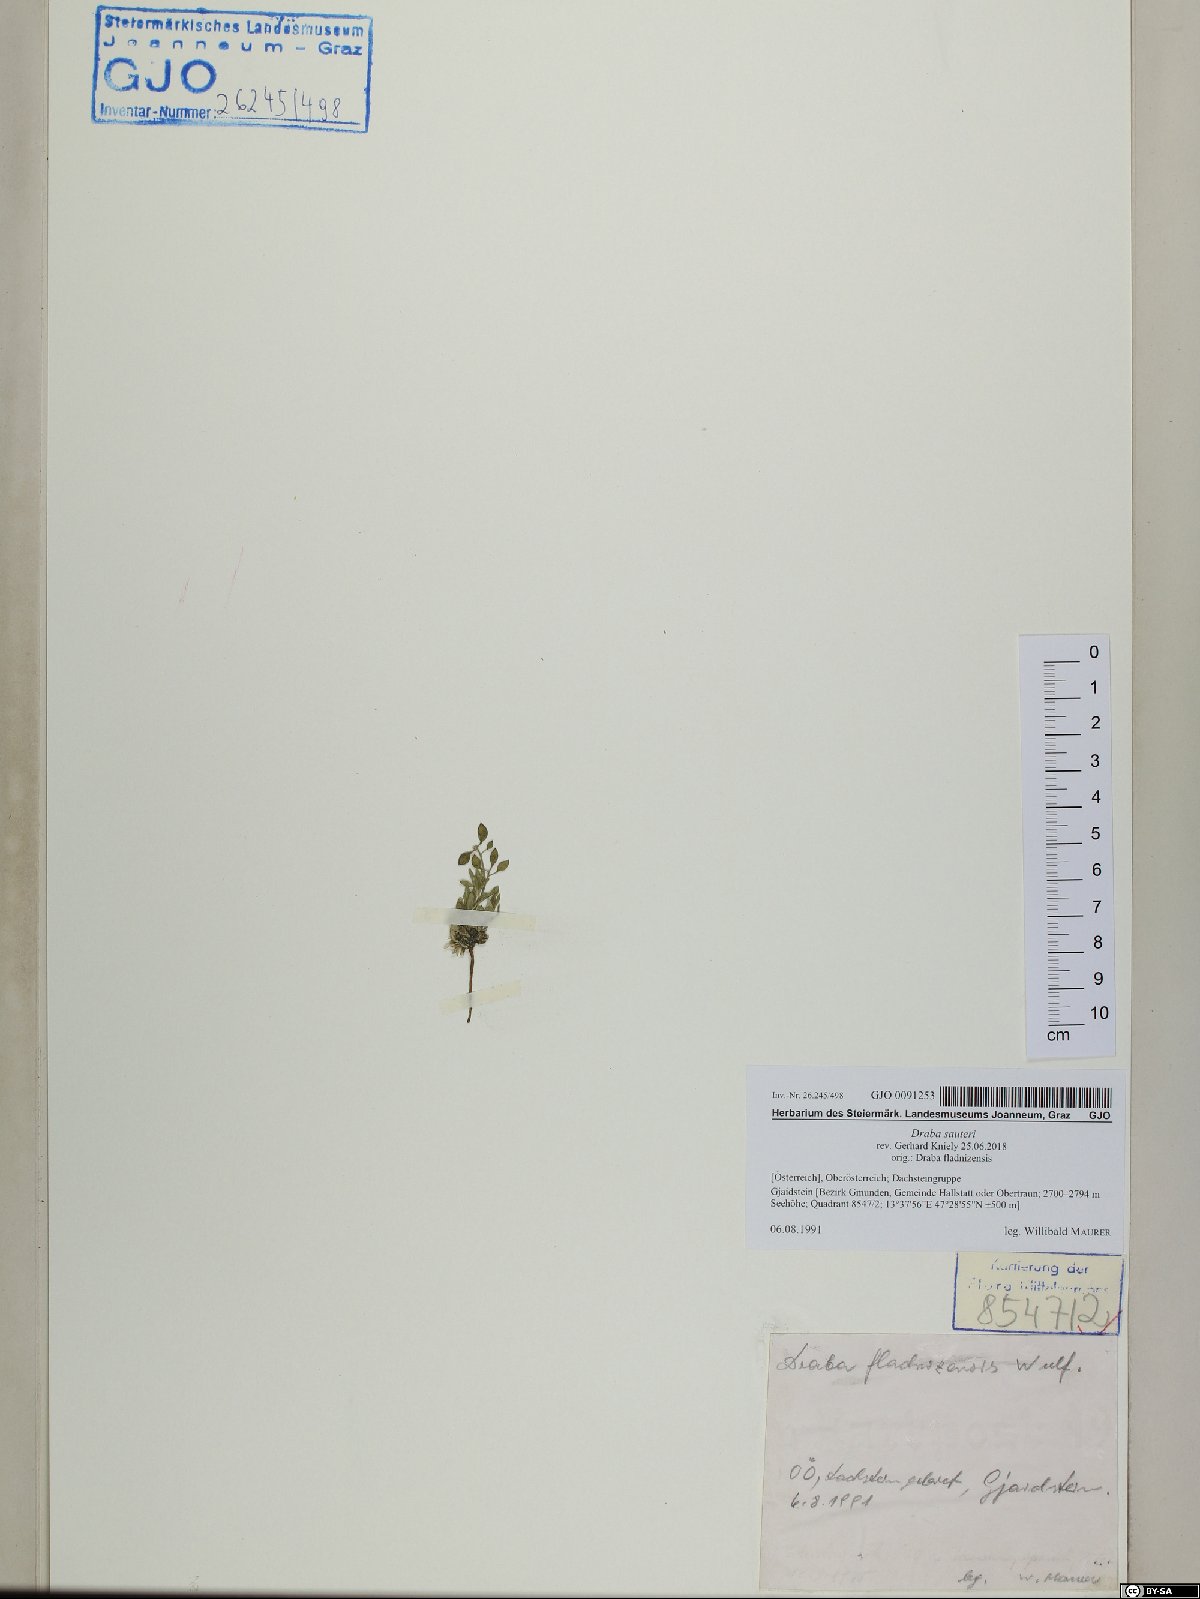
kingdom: Plantae
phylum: Tracheophyta
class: Magnoliopsida
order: Brassicales
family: Brassicaceae
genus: Draba
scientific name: Draba sauteri
